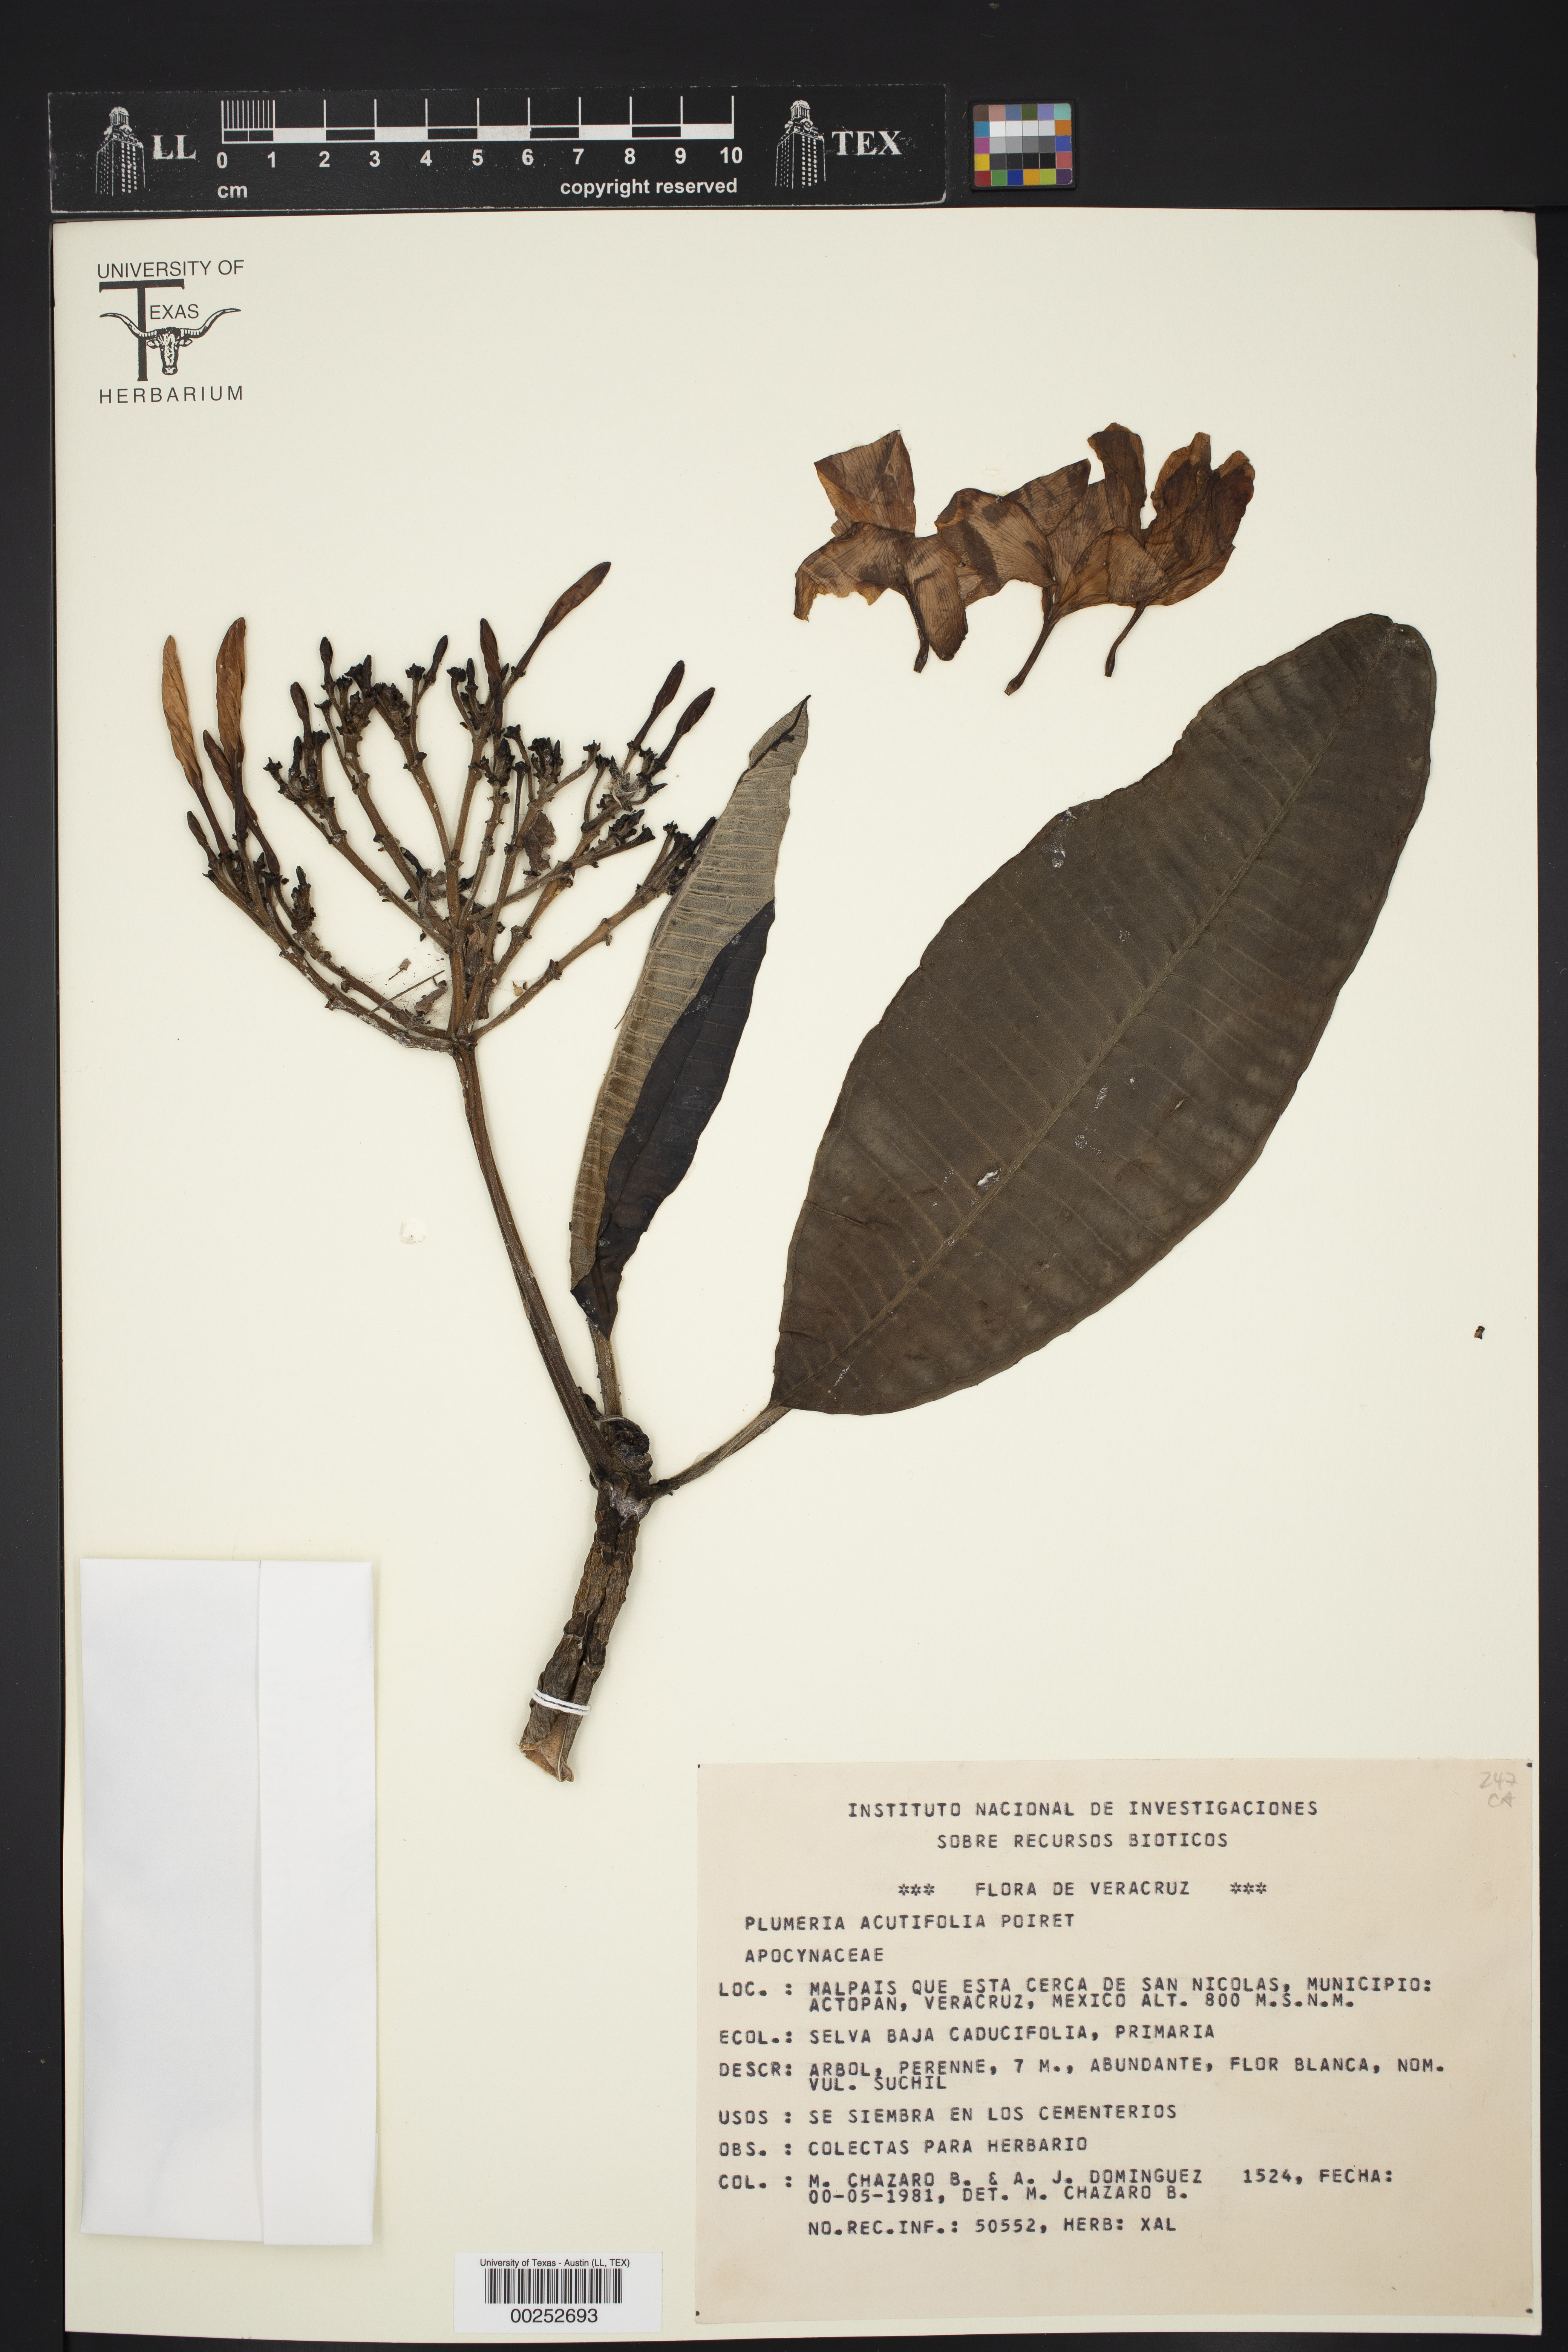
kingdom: Plantae
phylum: Tracheophyta
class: Magnoliopsida
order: Gentianales
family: Apocynaceae
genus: Plumeria
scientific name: Plumeria rubra
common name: Pagoda-tree
